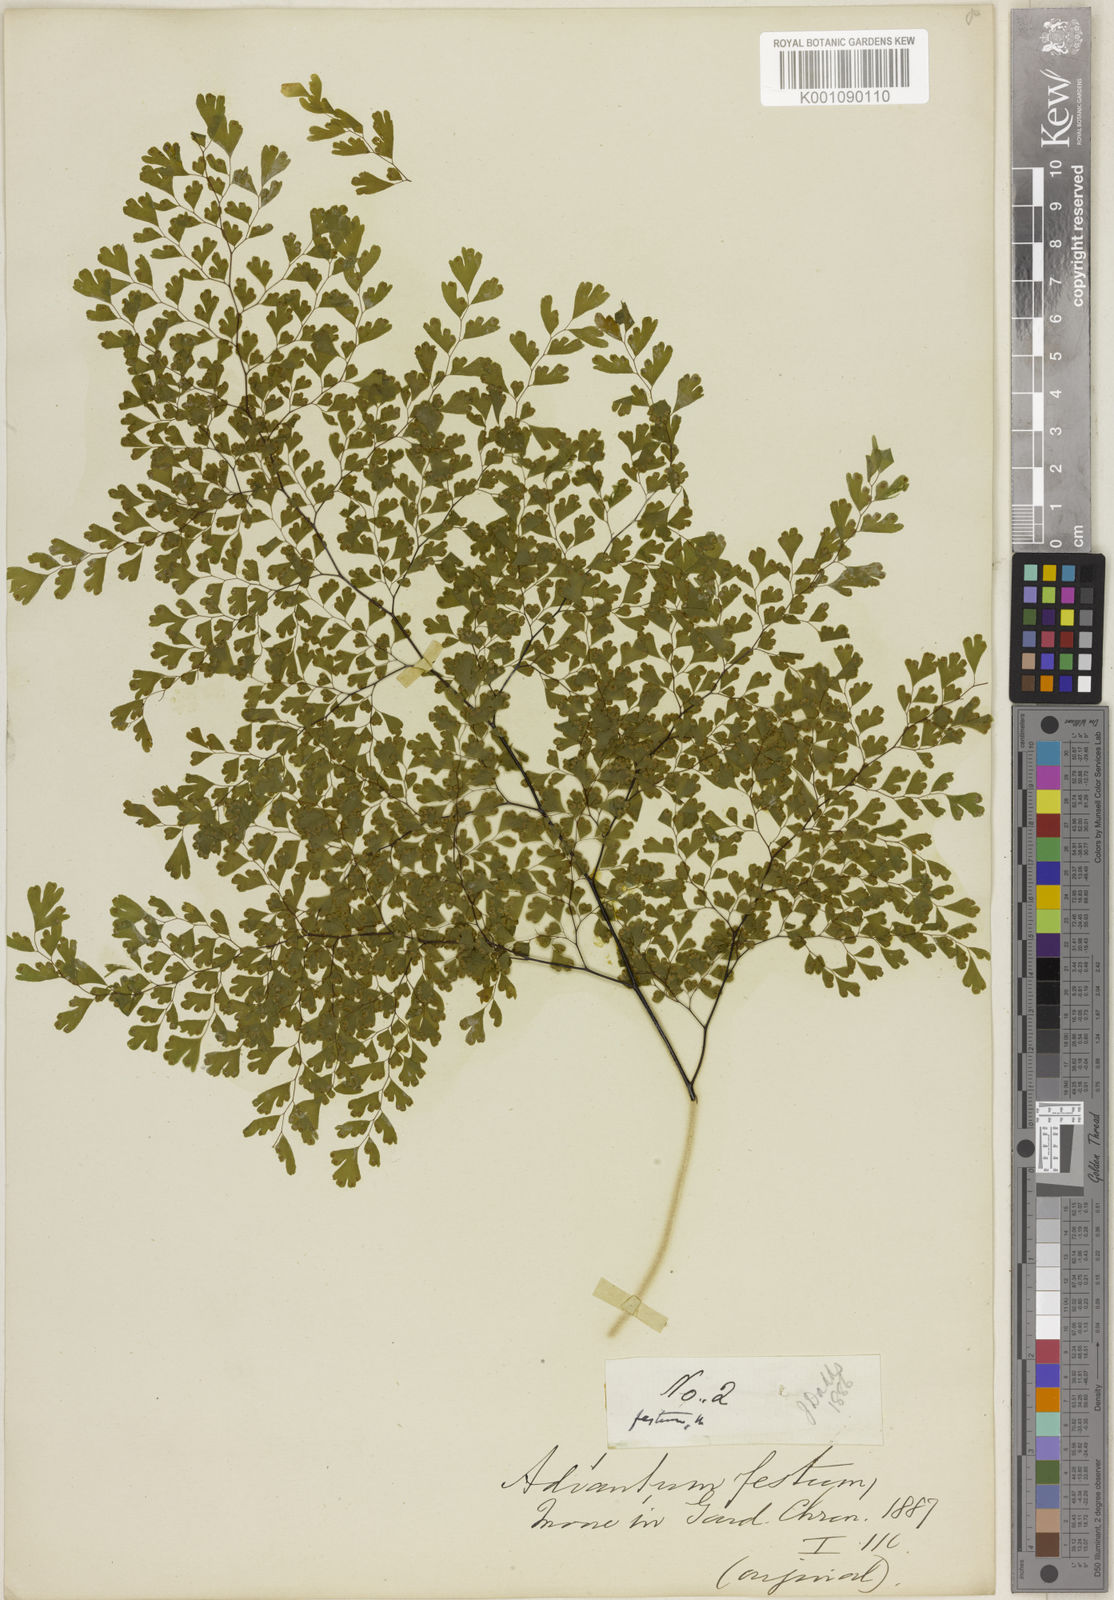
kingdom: Plantae
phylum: Tracheophyta
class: Polypodiopsida
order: Polypodiales
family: Pteridaceae
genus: Adiantum
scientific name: Adiantum raddianum
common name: Delta maidenhair fern
